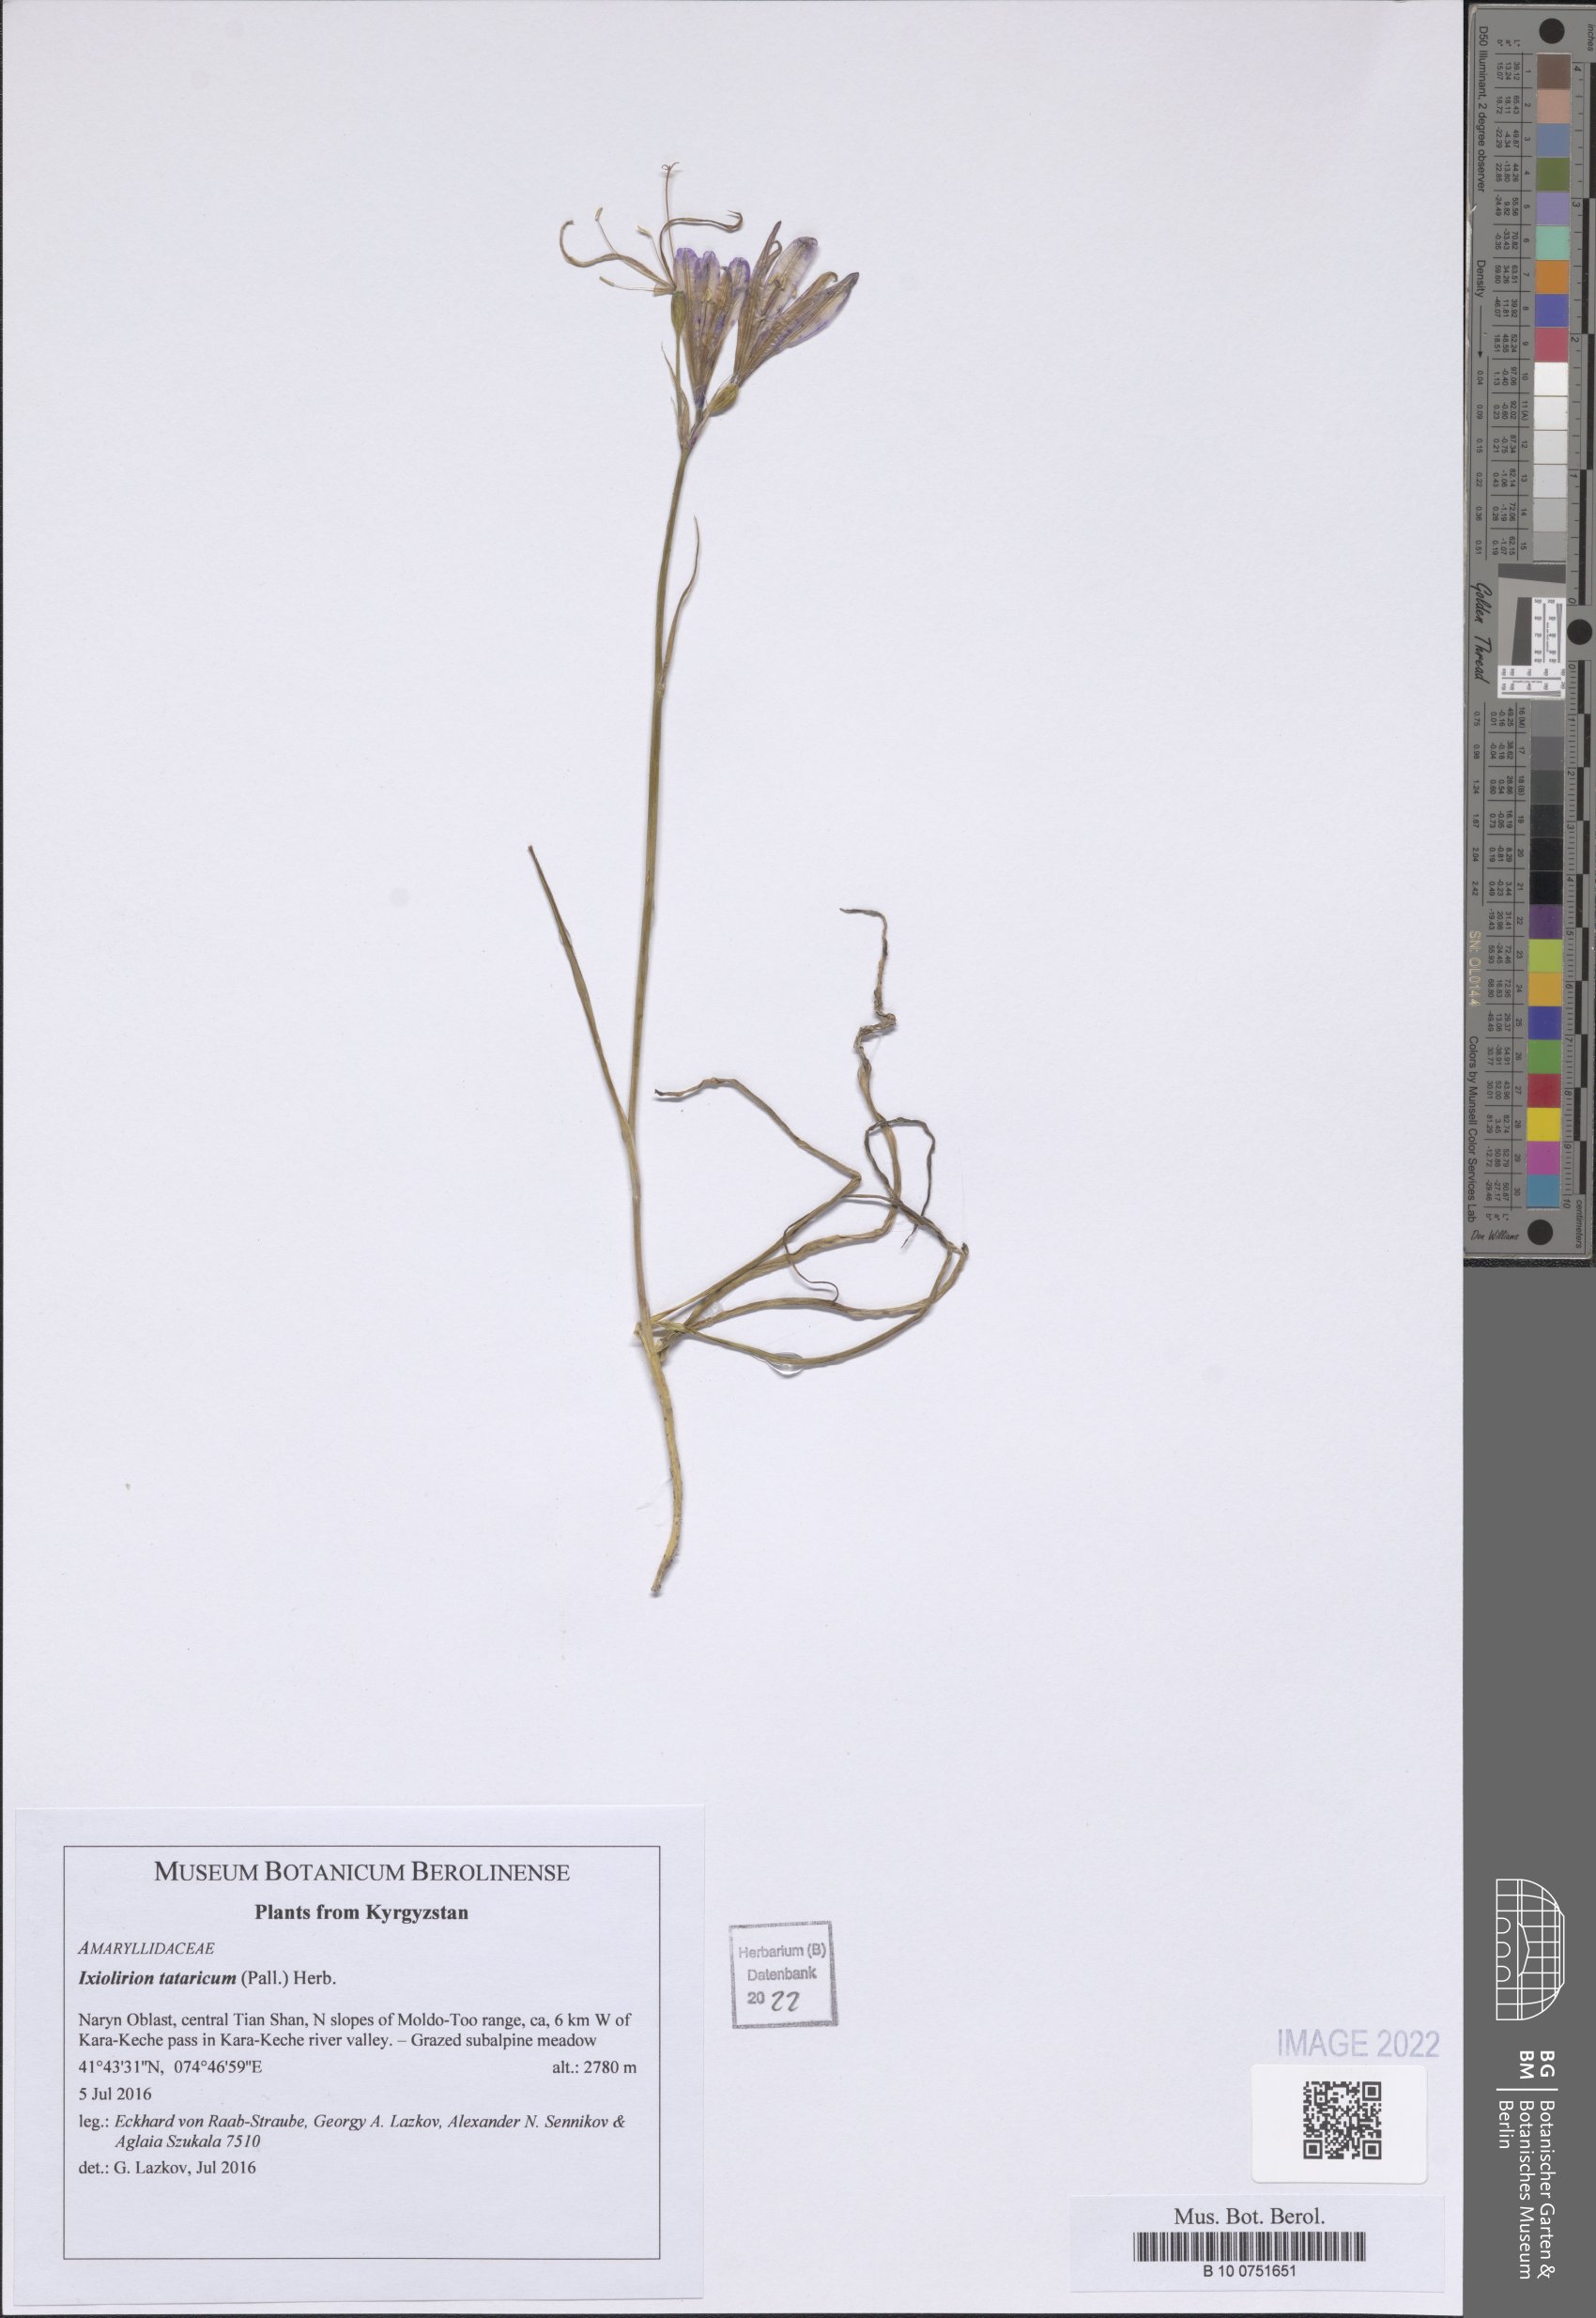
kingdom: Plantae
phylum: Tracheophyta
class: Liliopsida
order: Asparagales
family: Ixioliriaceae
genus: Ixiolirion
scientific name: Ixiolirion tataricum
